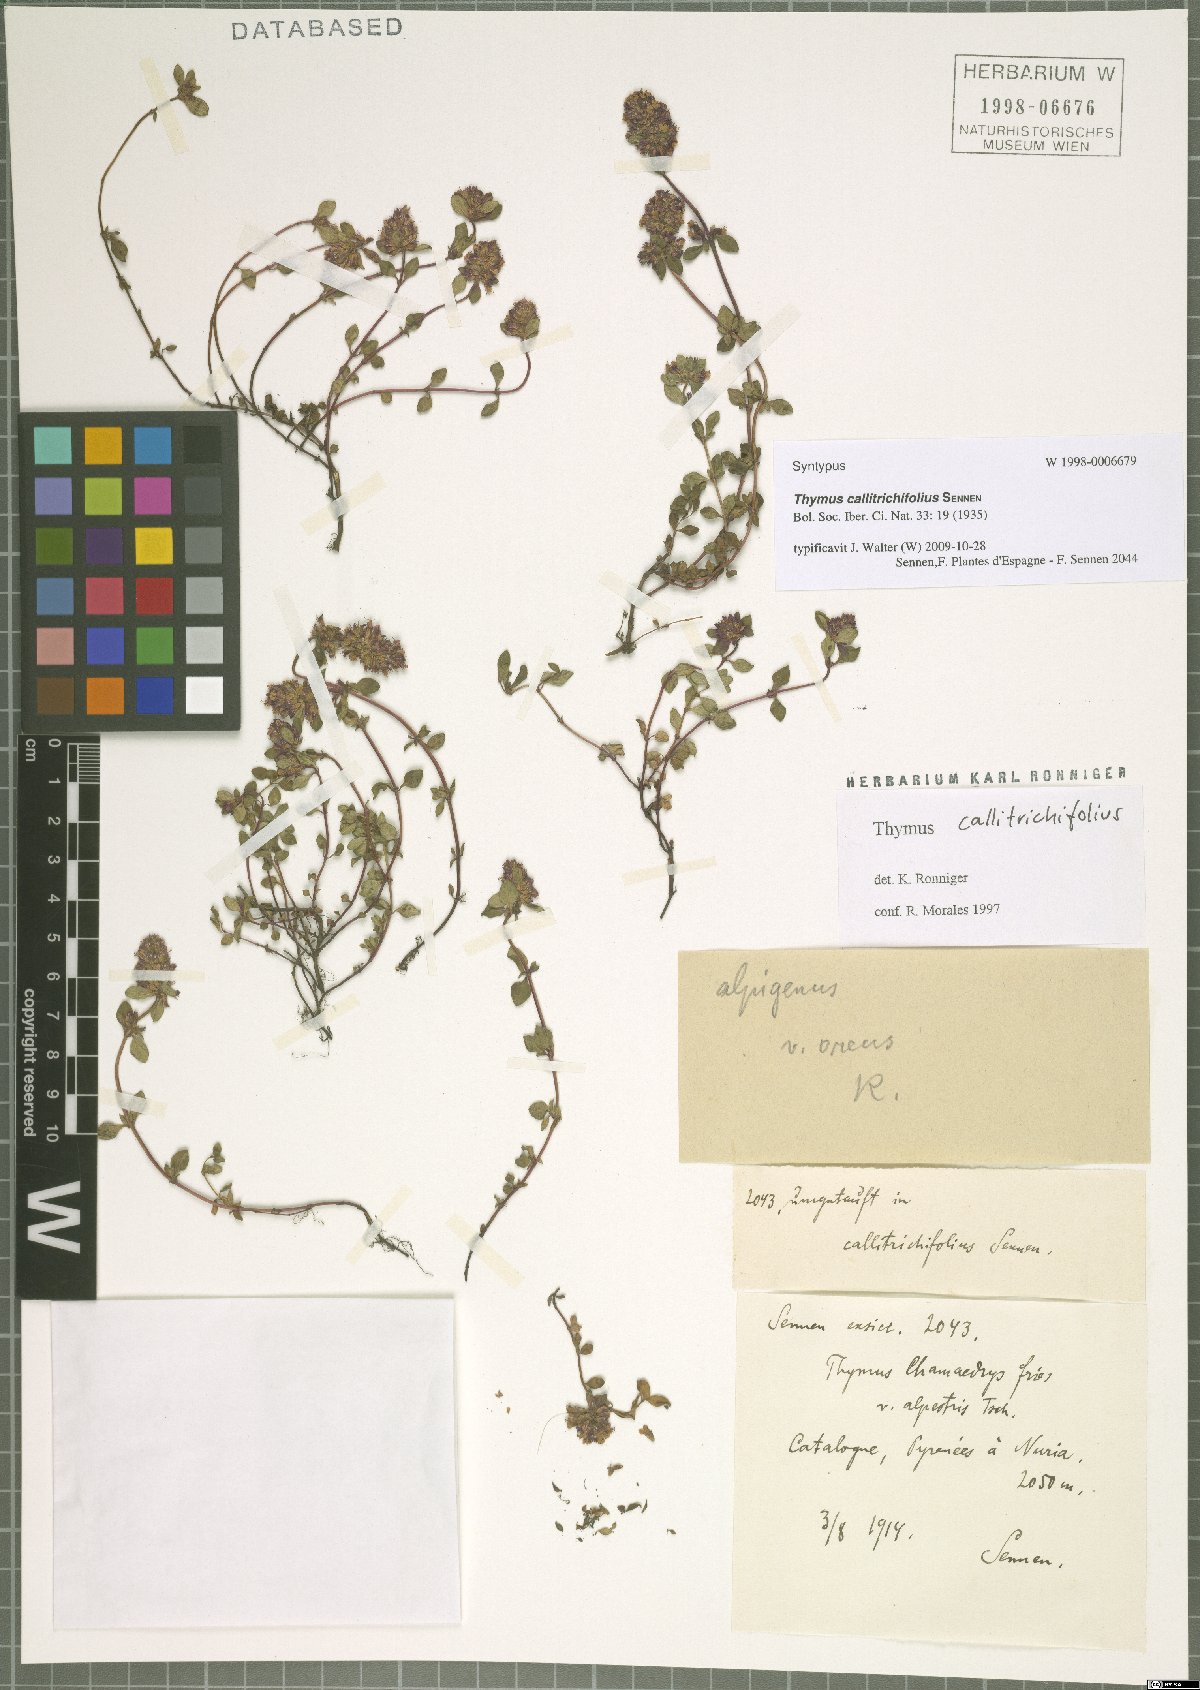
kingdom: Plantae
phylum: Tracheophyta
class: Magnoliopsida
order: Lamiales
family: Lamiaceae
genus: Thymus
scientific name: Thymus pulegioides
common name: Large thyme
